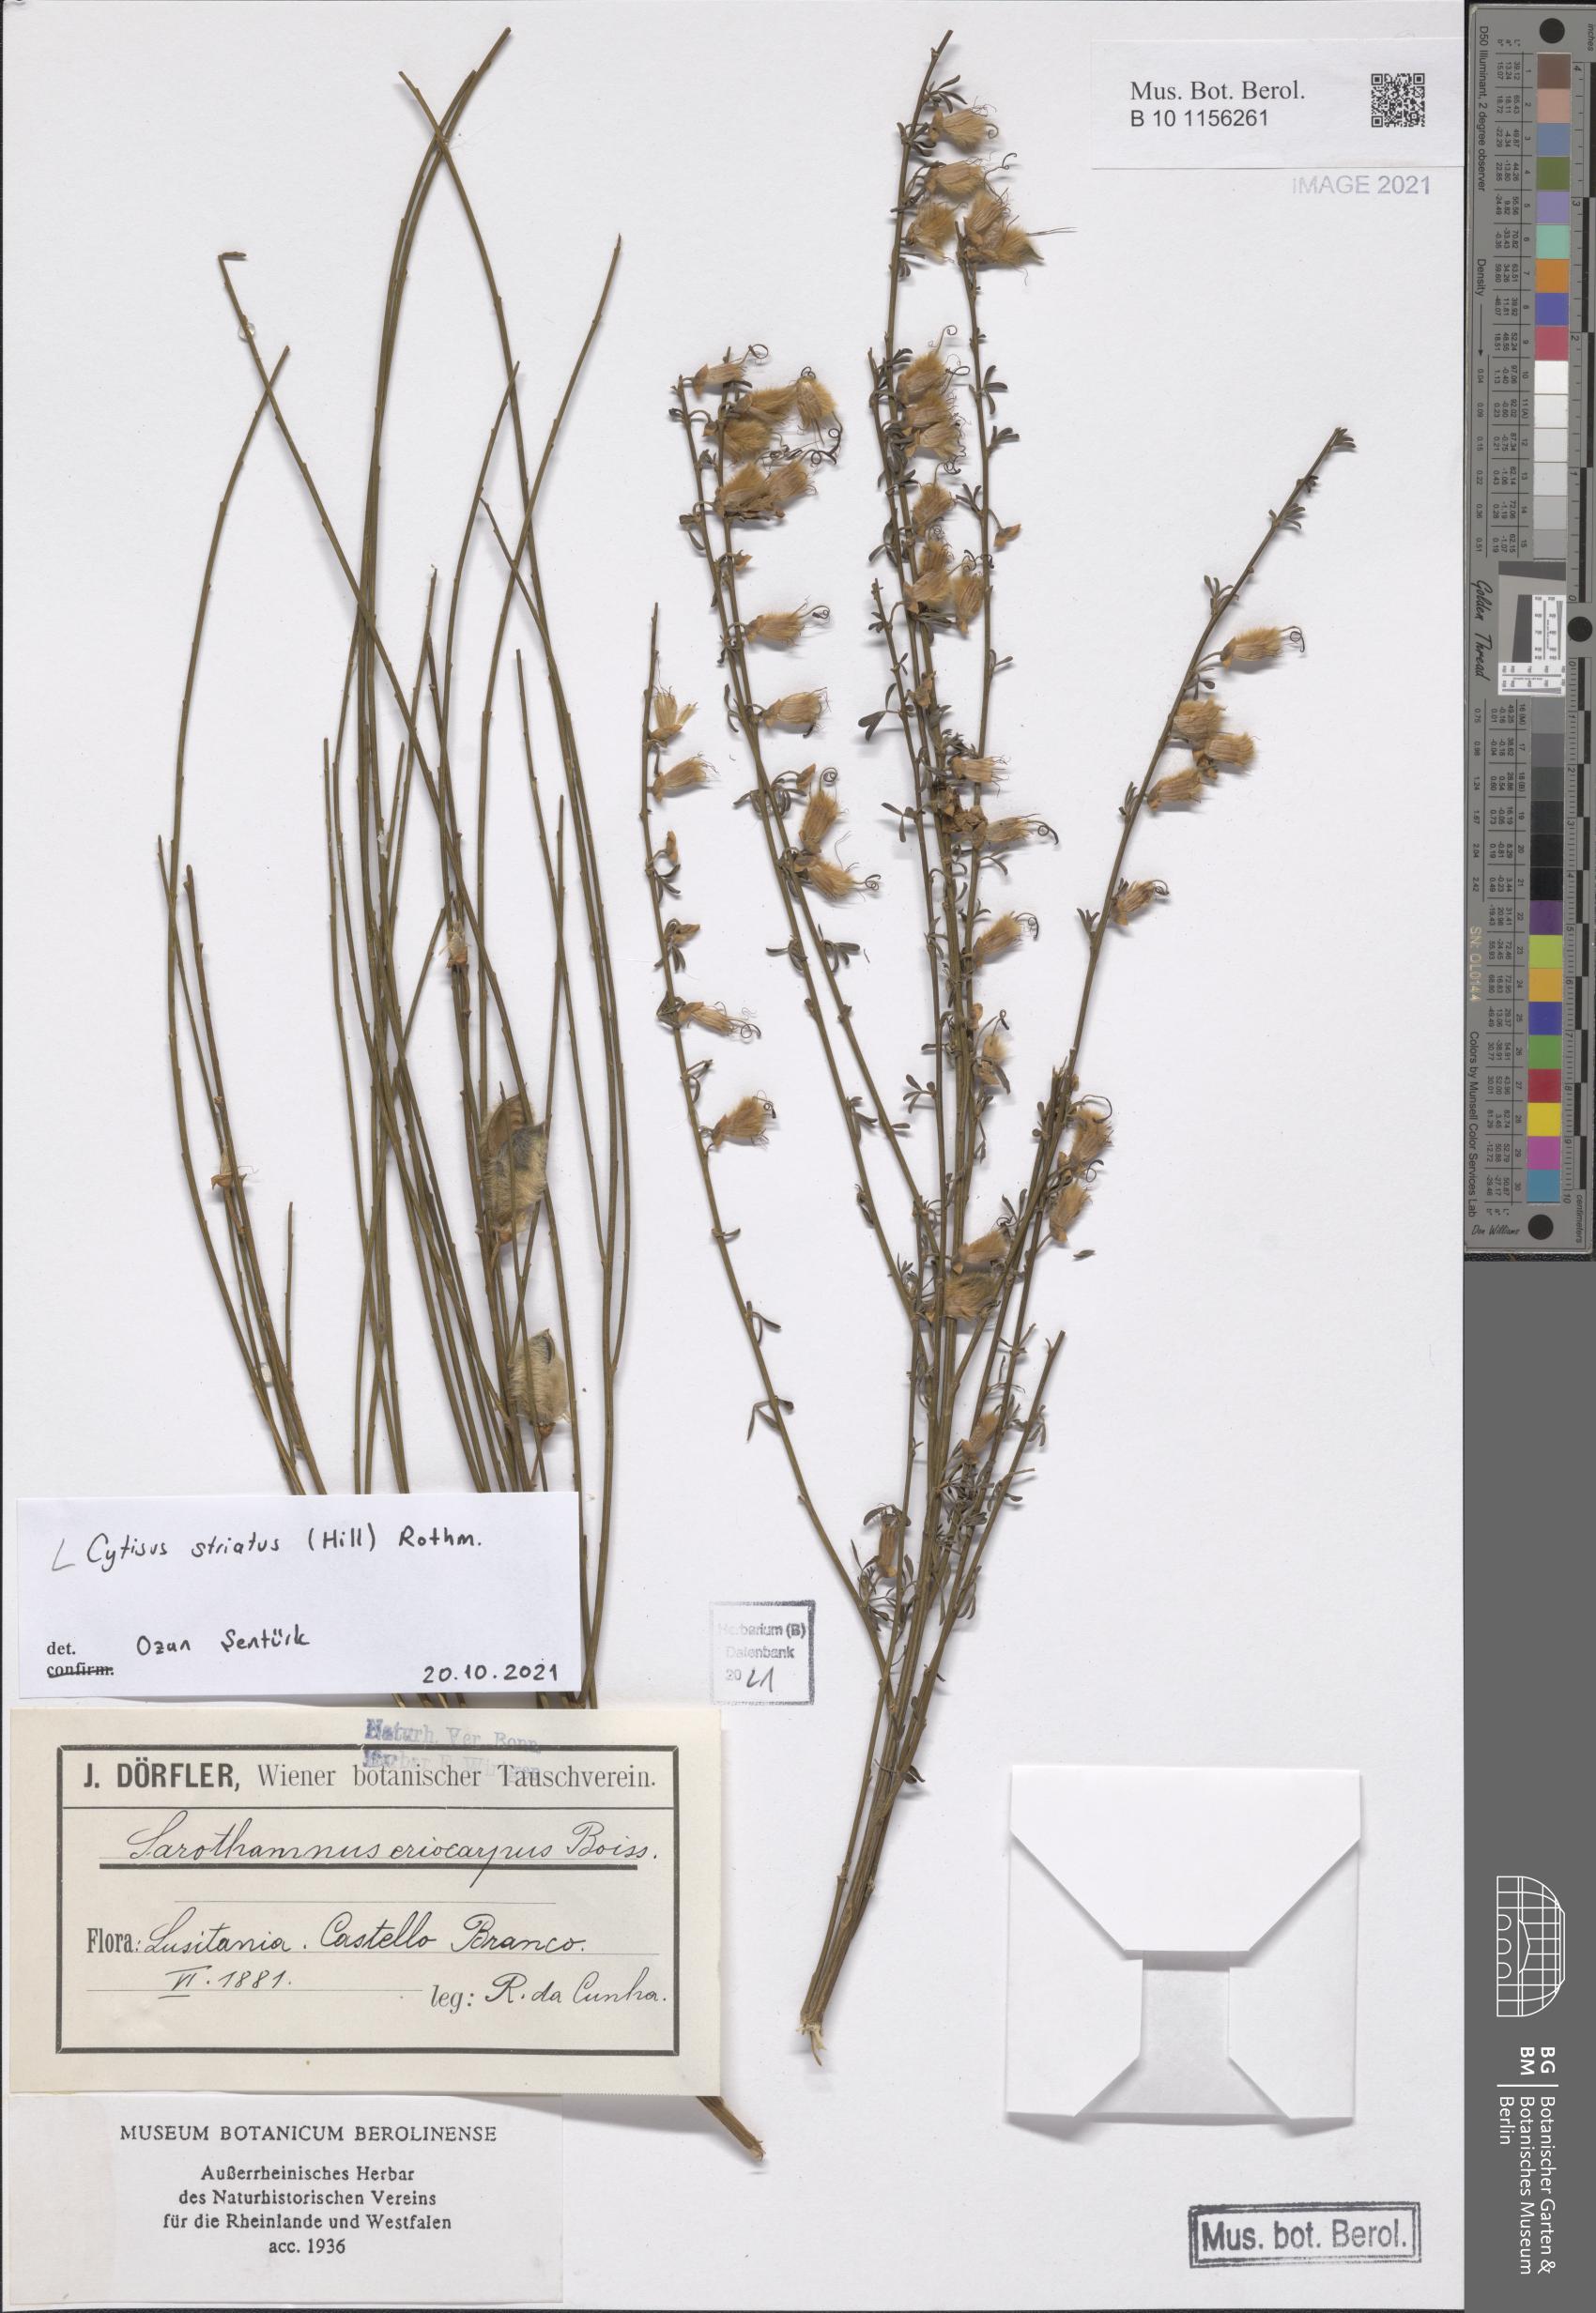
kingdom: Plantae
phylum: Tracheophyta
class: Magnoliopsida
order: Fabales
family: Fabaceae
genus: Cytisus
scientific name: Cytisus striatus
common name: Hairy-fruited broom
